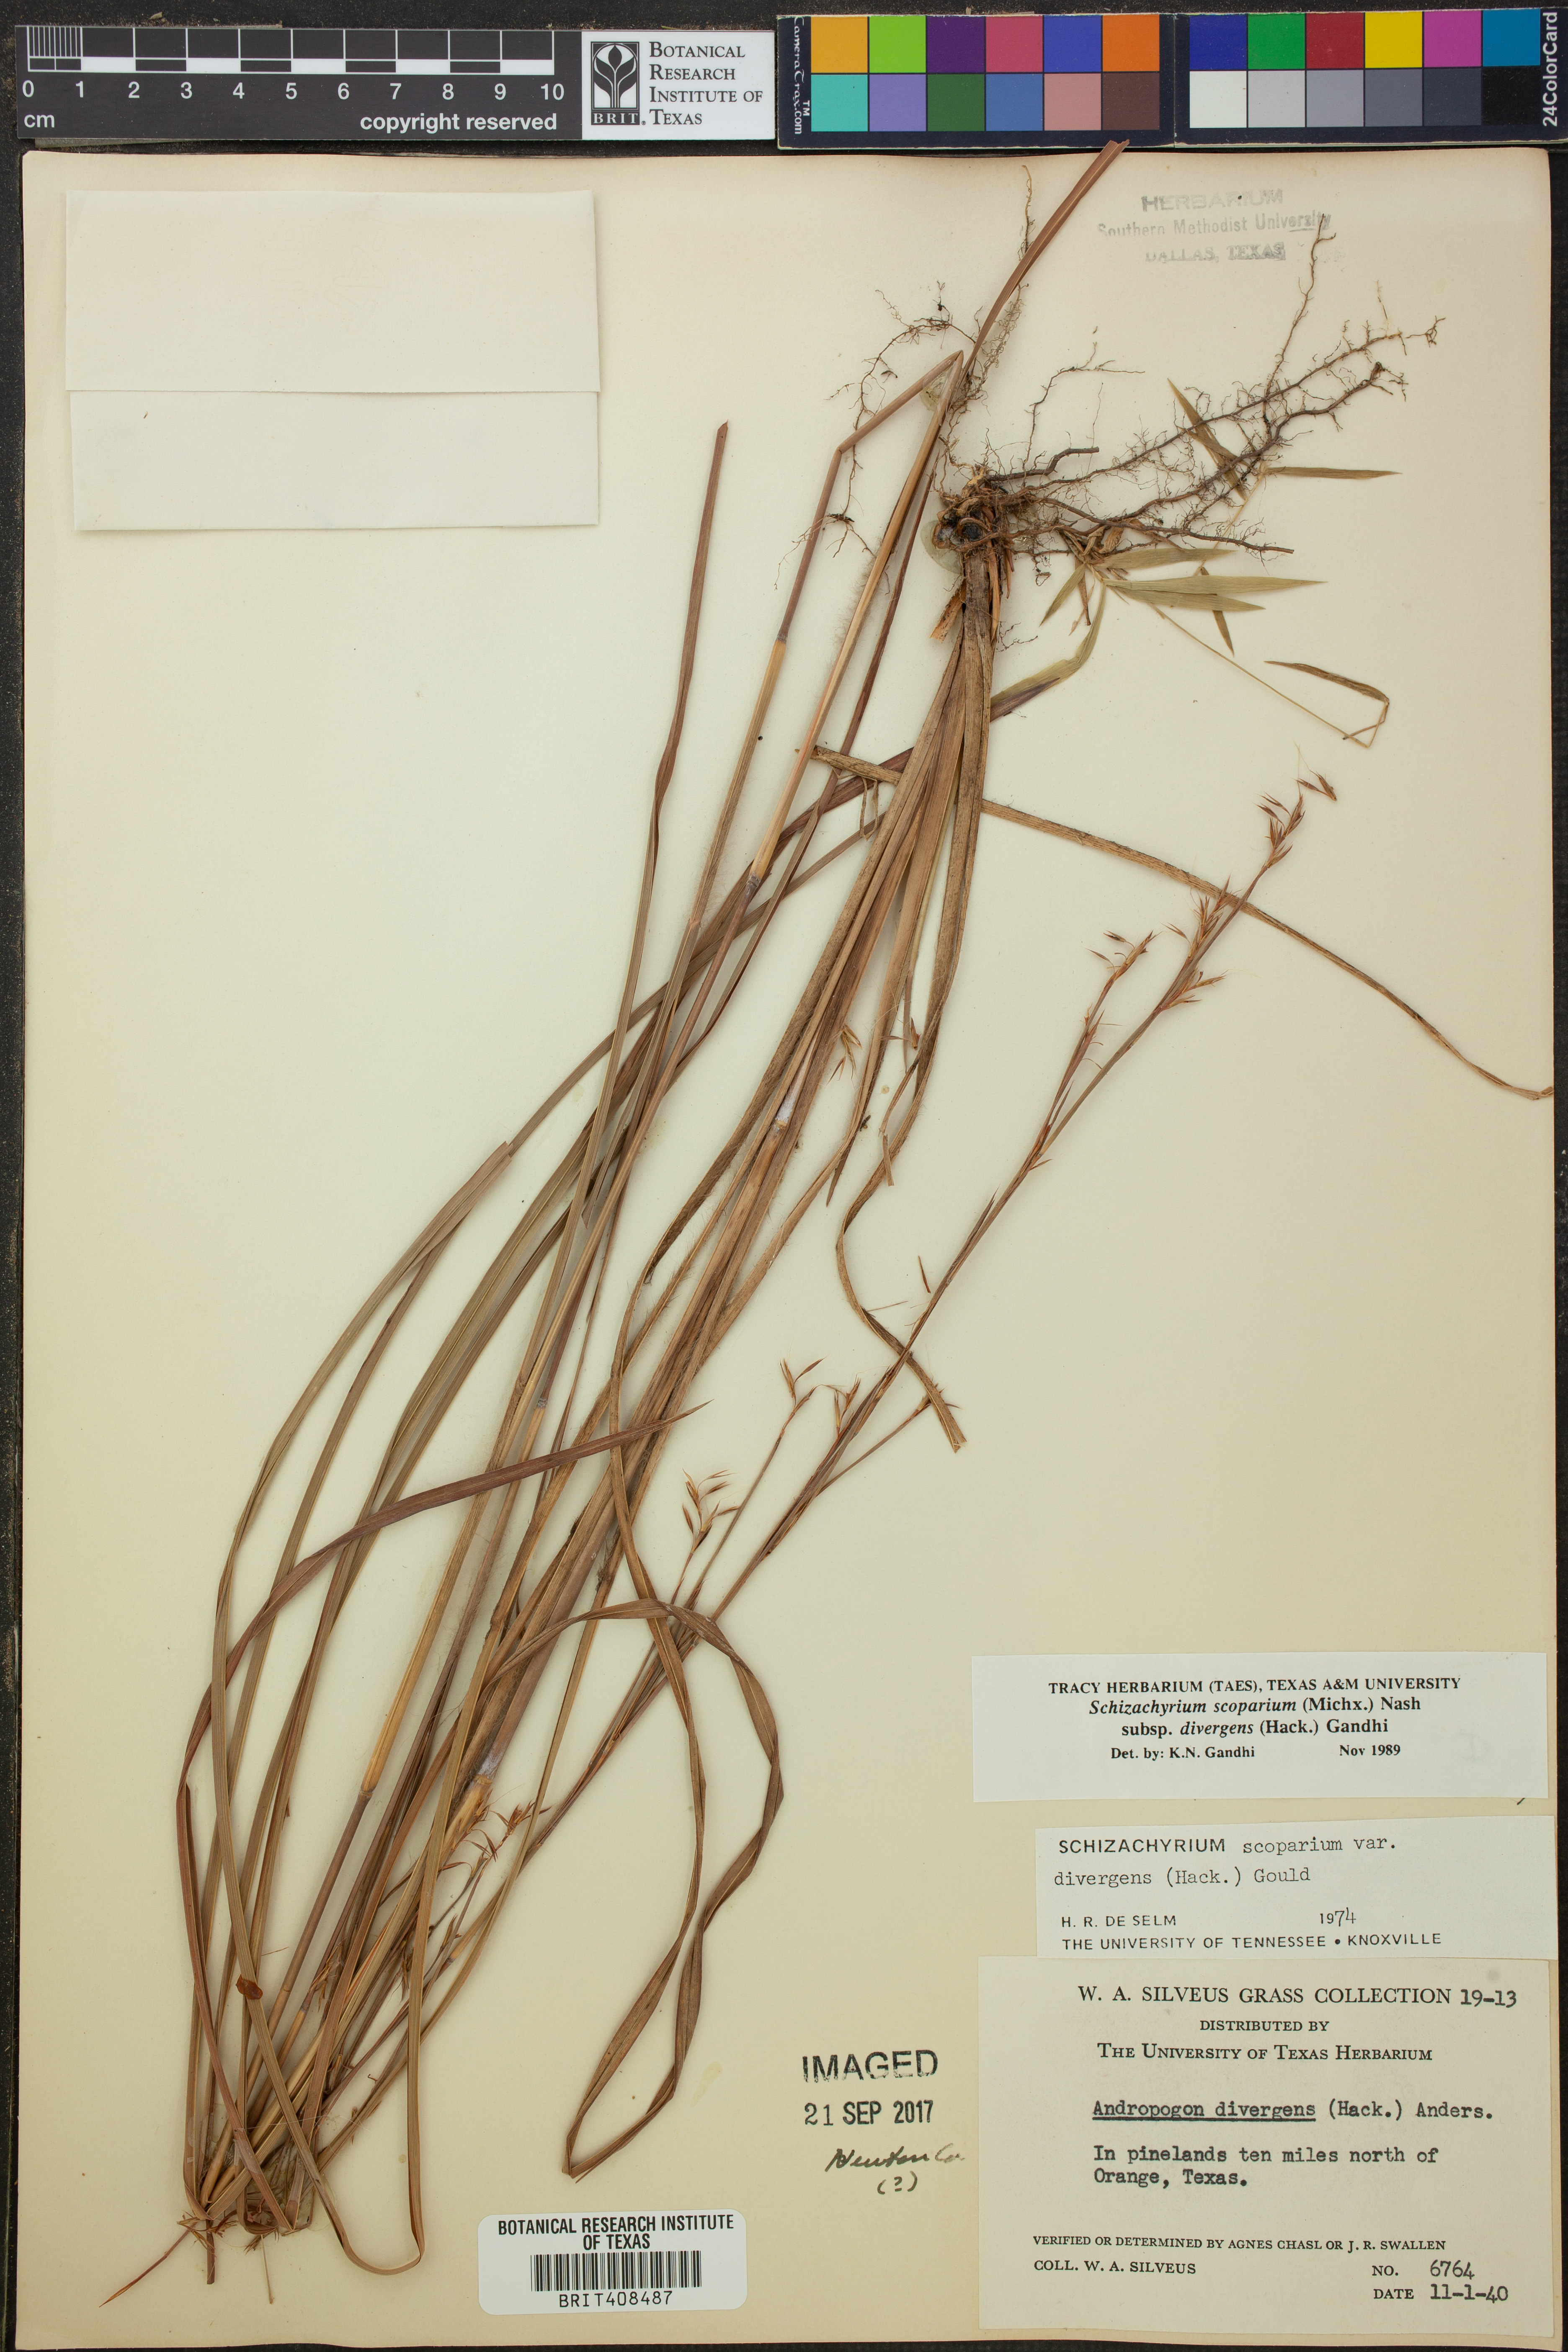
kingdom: Plantae
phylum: Tracheophyta
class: Liliopsida
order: Poales
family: Poaceae
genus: Schizachyrium
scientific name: Schizachyrium scoparium
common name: Little bluestem
